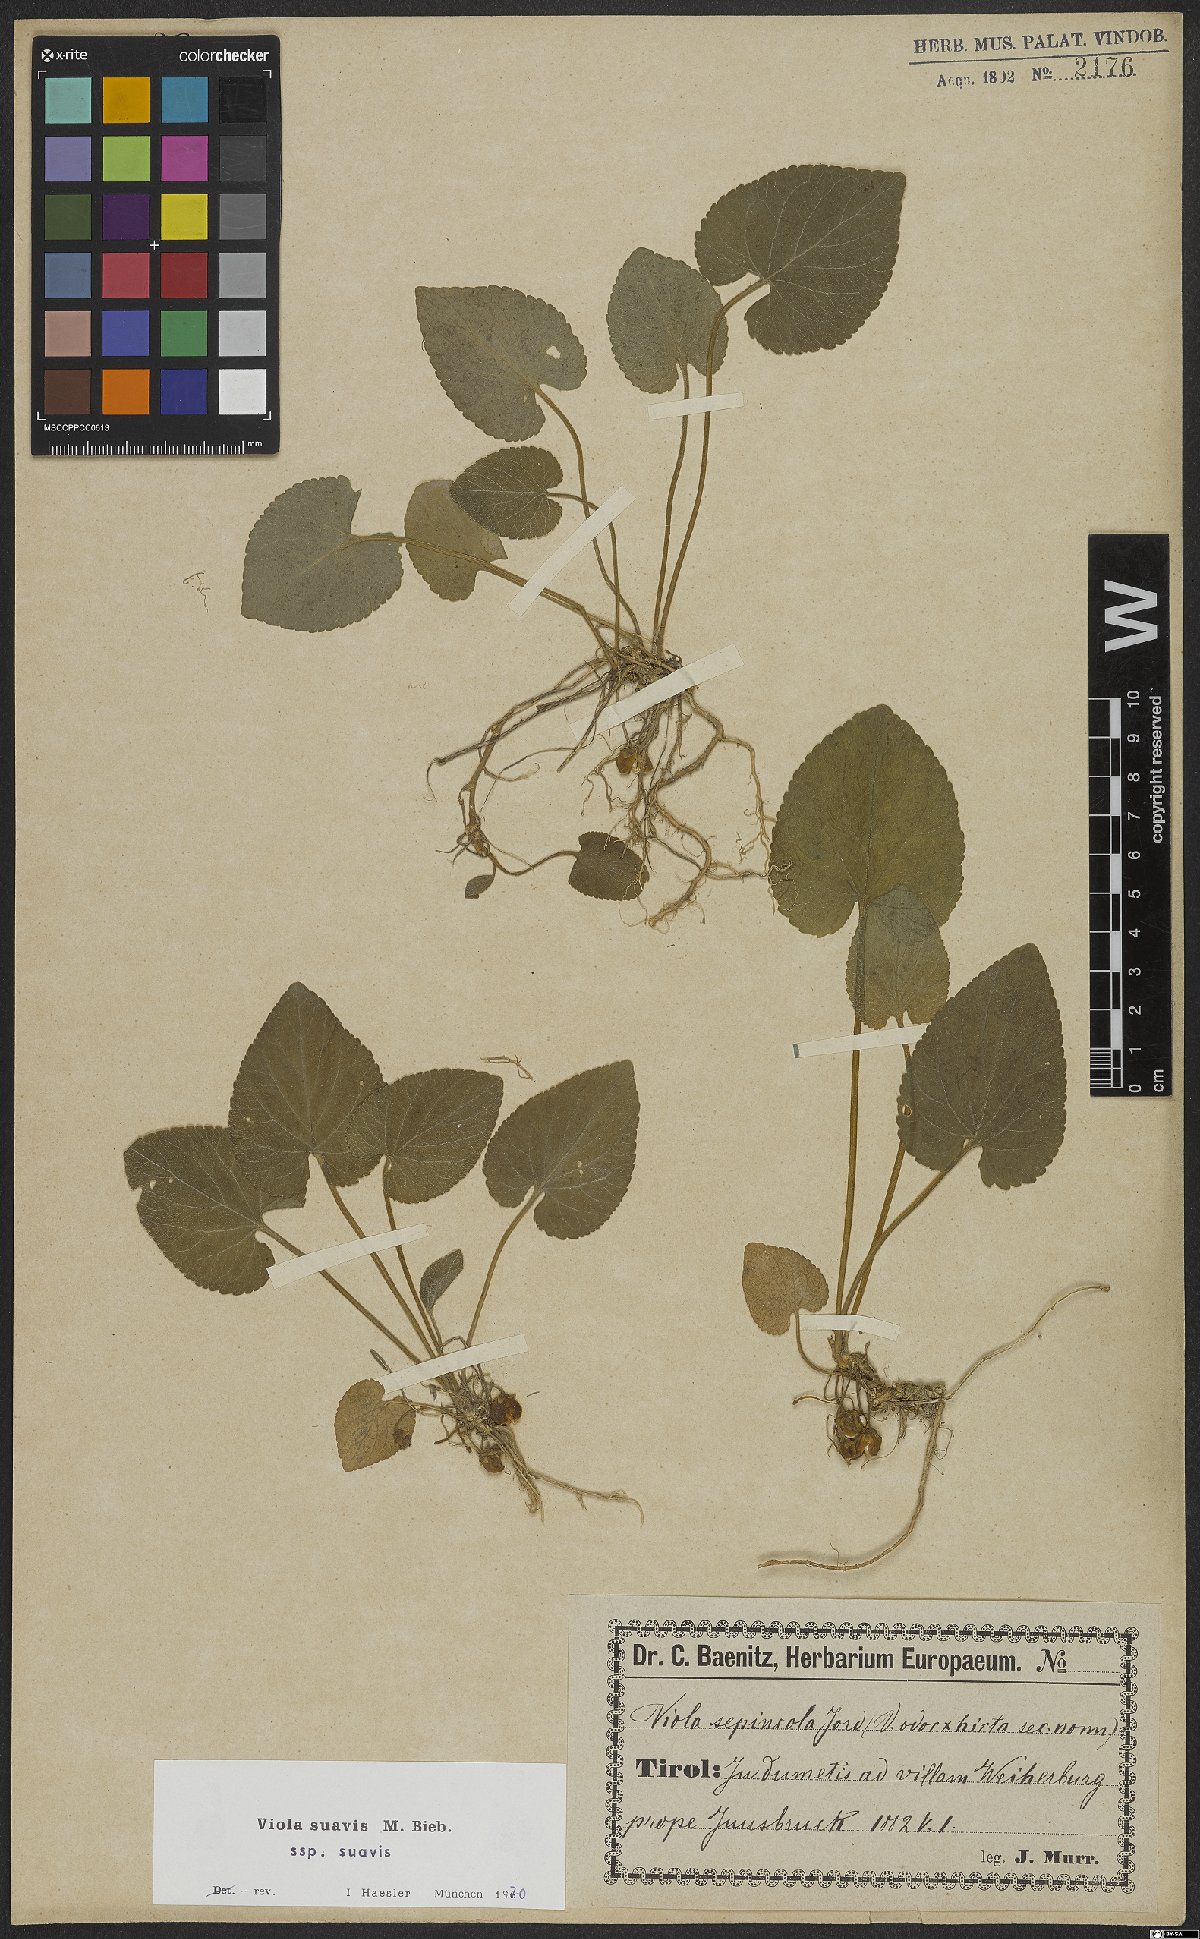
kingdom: Plantae
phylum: Tracheophyta
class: Magnoliopsida
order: Malpighiales
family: Violaceae
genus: Viola
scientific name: Viola suavis
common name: Russian violet
